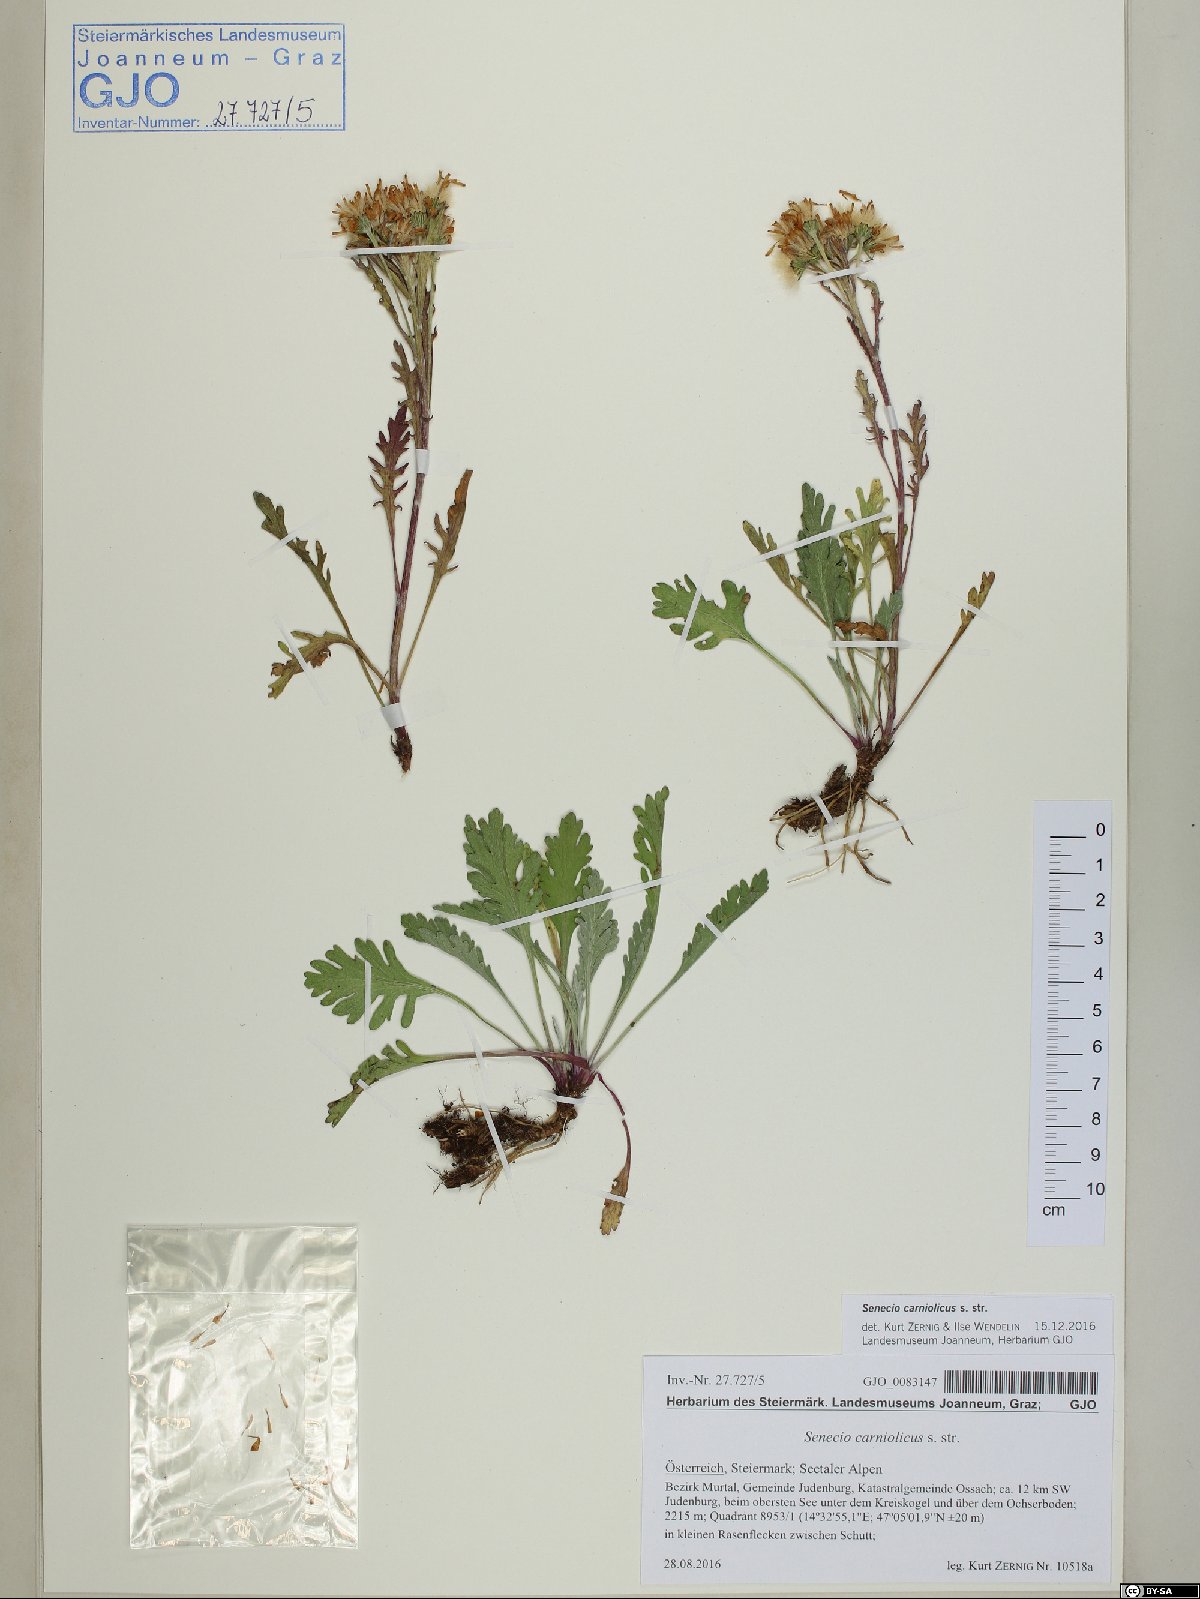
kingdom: Plantae
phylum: Tracheophyta
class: Magnoliopsida
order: Asterales
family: Asteraceae
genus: Jacobaea
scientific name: Jacobaea carniolica
